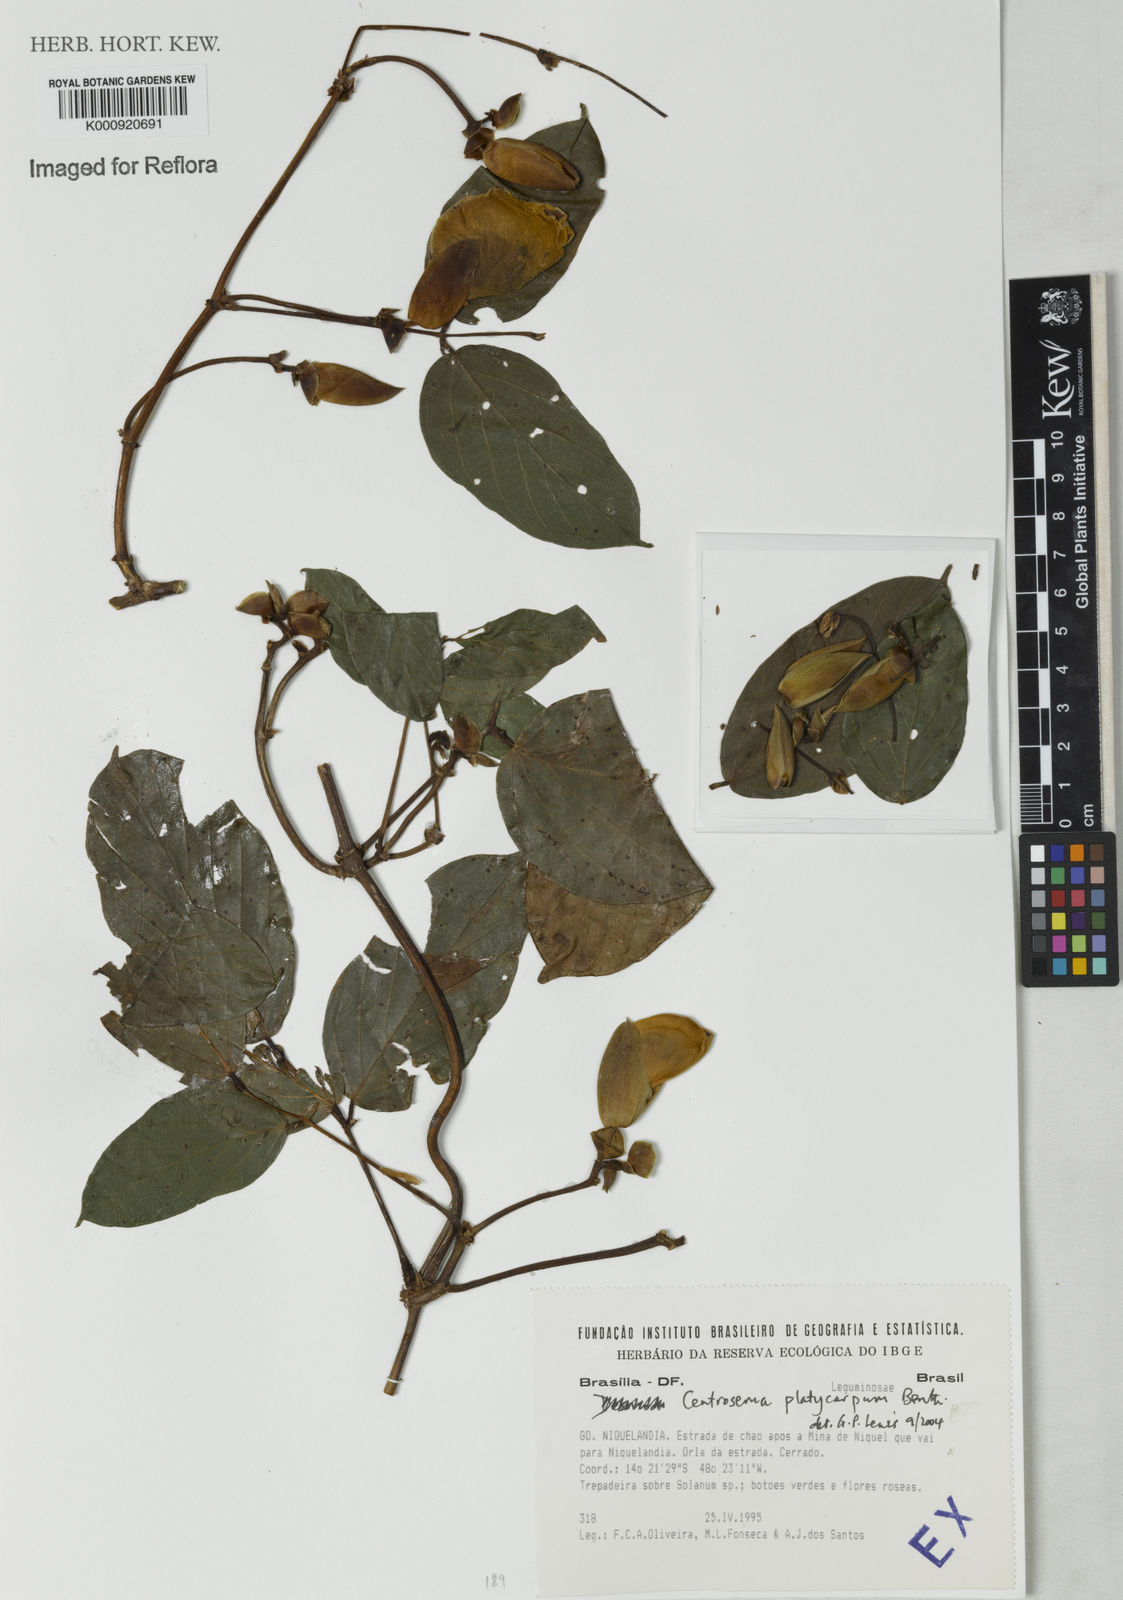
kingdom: Plantae
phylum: Tracheophyta
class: Magnoliopsida
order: Fabales
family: Fabaceae
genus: Centrosema
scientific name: Centrosema platycarpum
